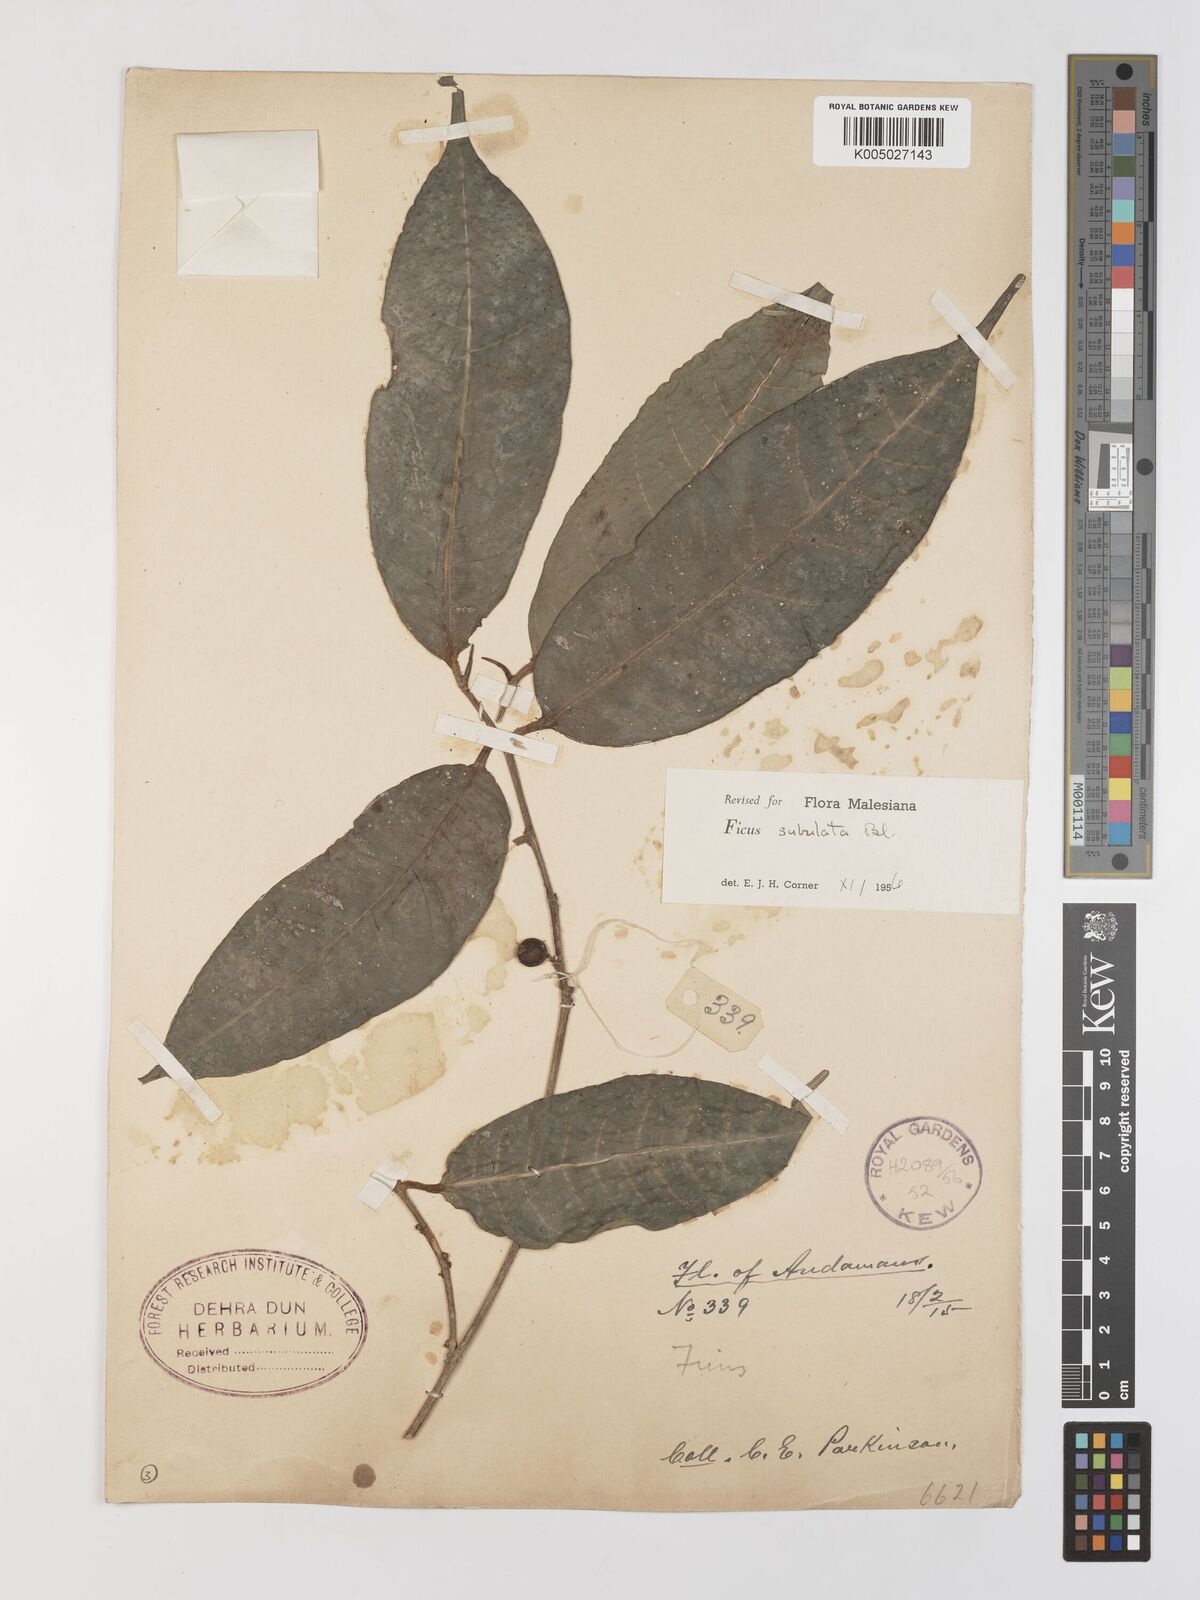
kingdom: Plantae
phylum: Tracheophyta
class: Magnoliopsida
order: Rosales
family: Moraceae
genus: Ficus
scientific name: Ficus subulata
